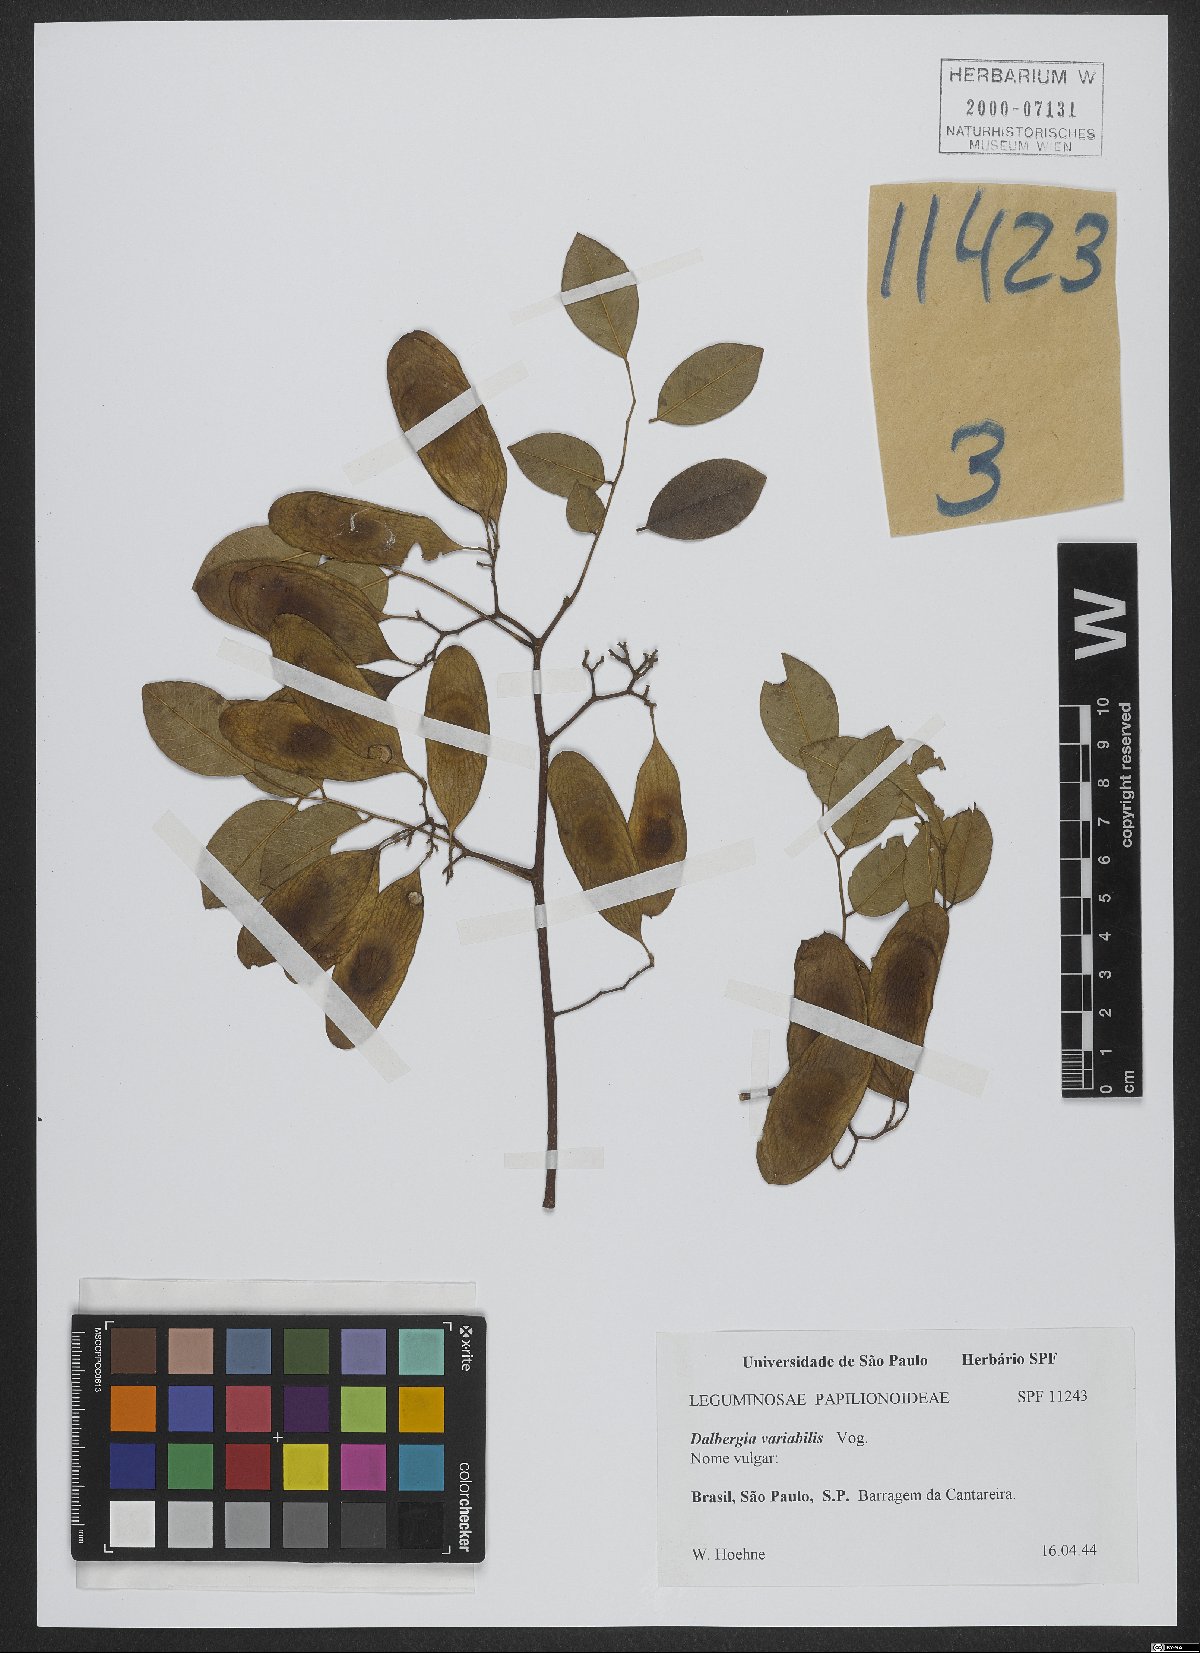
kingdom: Plantae
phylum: Tracheophyta
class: Magnoliopsida
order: Fabales
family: Fabaceae
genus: Dalbergia
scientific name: Dalbergia frutescens
